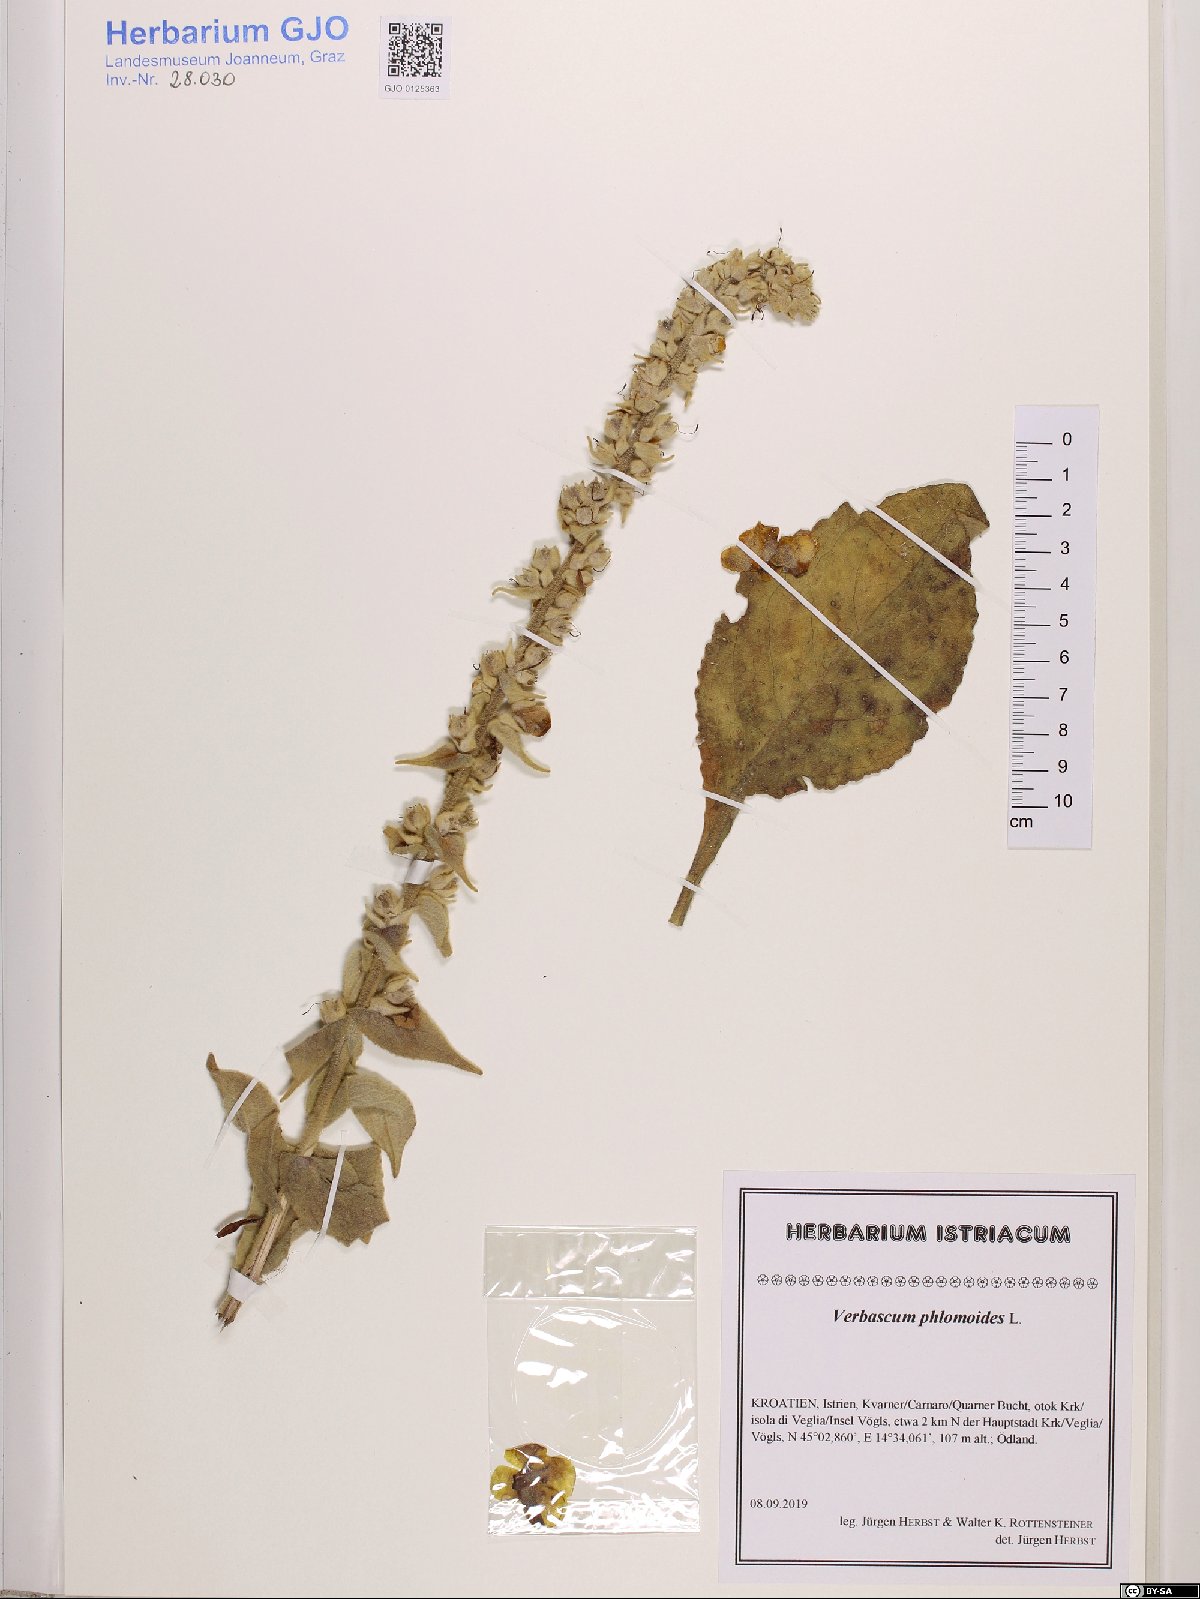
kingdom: Plantae
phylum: Tracheophyta
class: Magnoliopsida
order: Lamiales
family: Scrophulariaceae
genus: Verbascum
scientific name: Verbascum phlomoides
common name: Orange mullein
